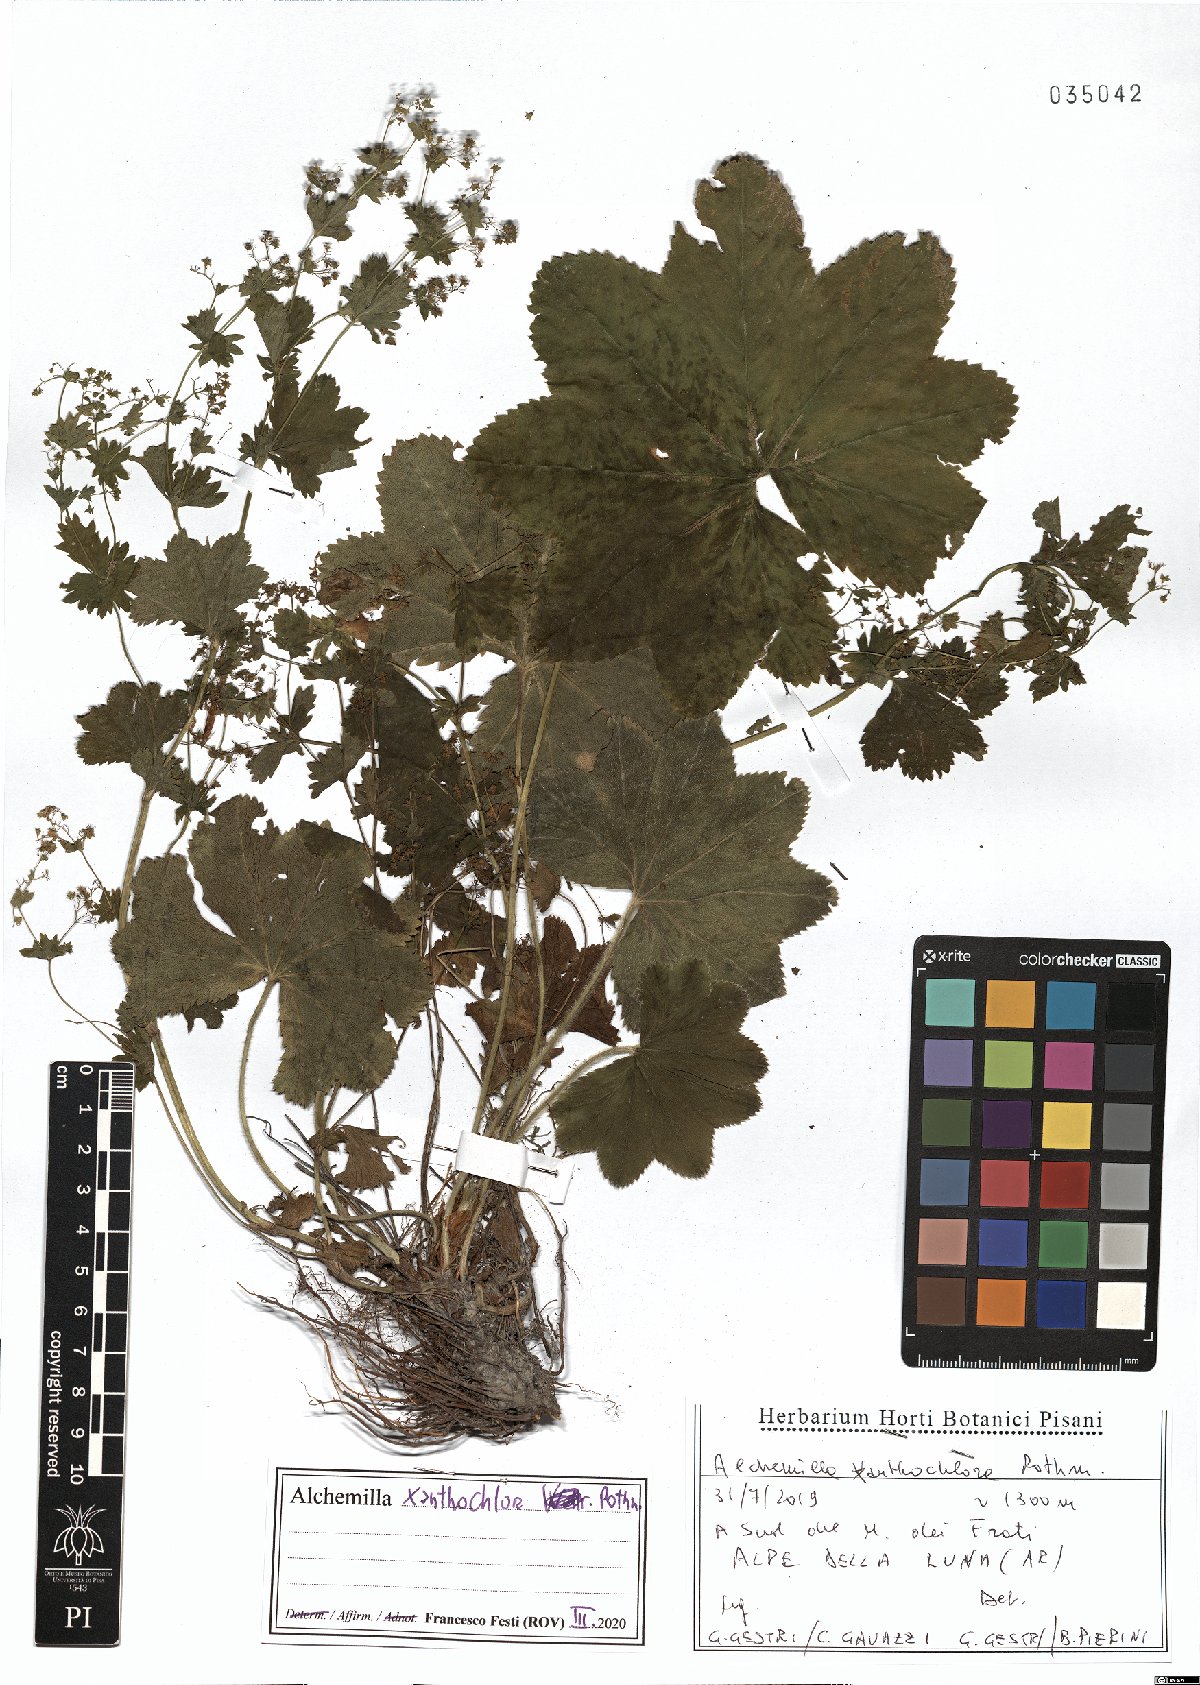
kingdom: Plantae
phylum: Tracheophyta
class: Magnoliopsida
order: Rosales
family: Rosaceae
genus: Alchemilla
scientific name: Alchemilla xanthochlora
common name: Intermediate lady's-mantle
